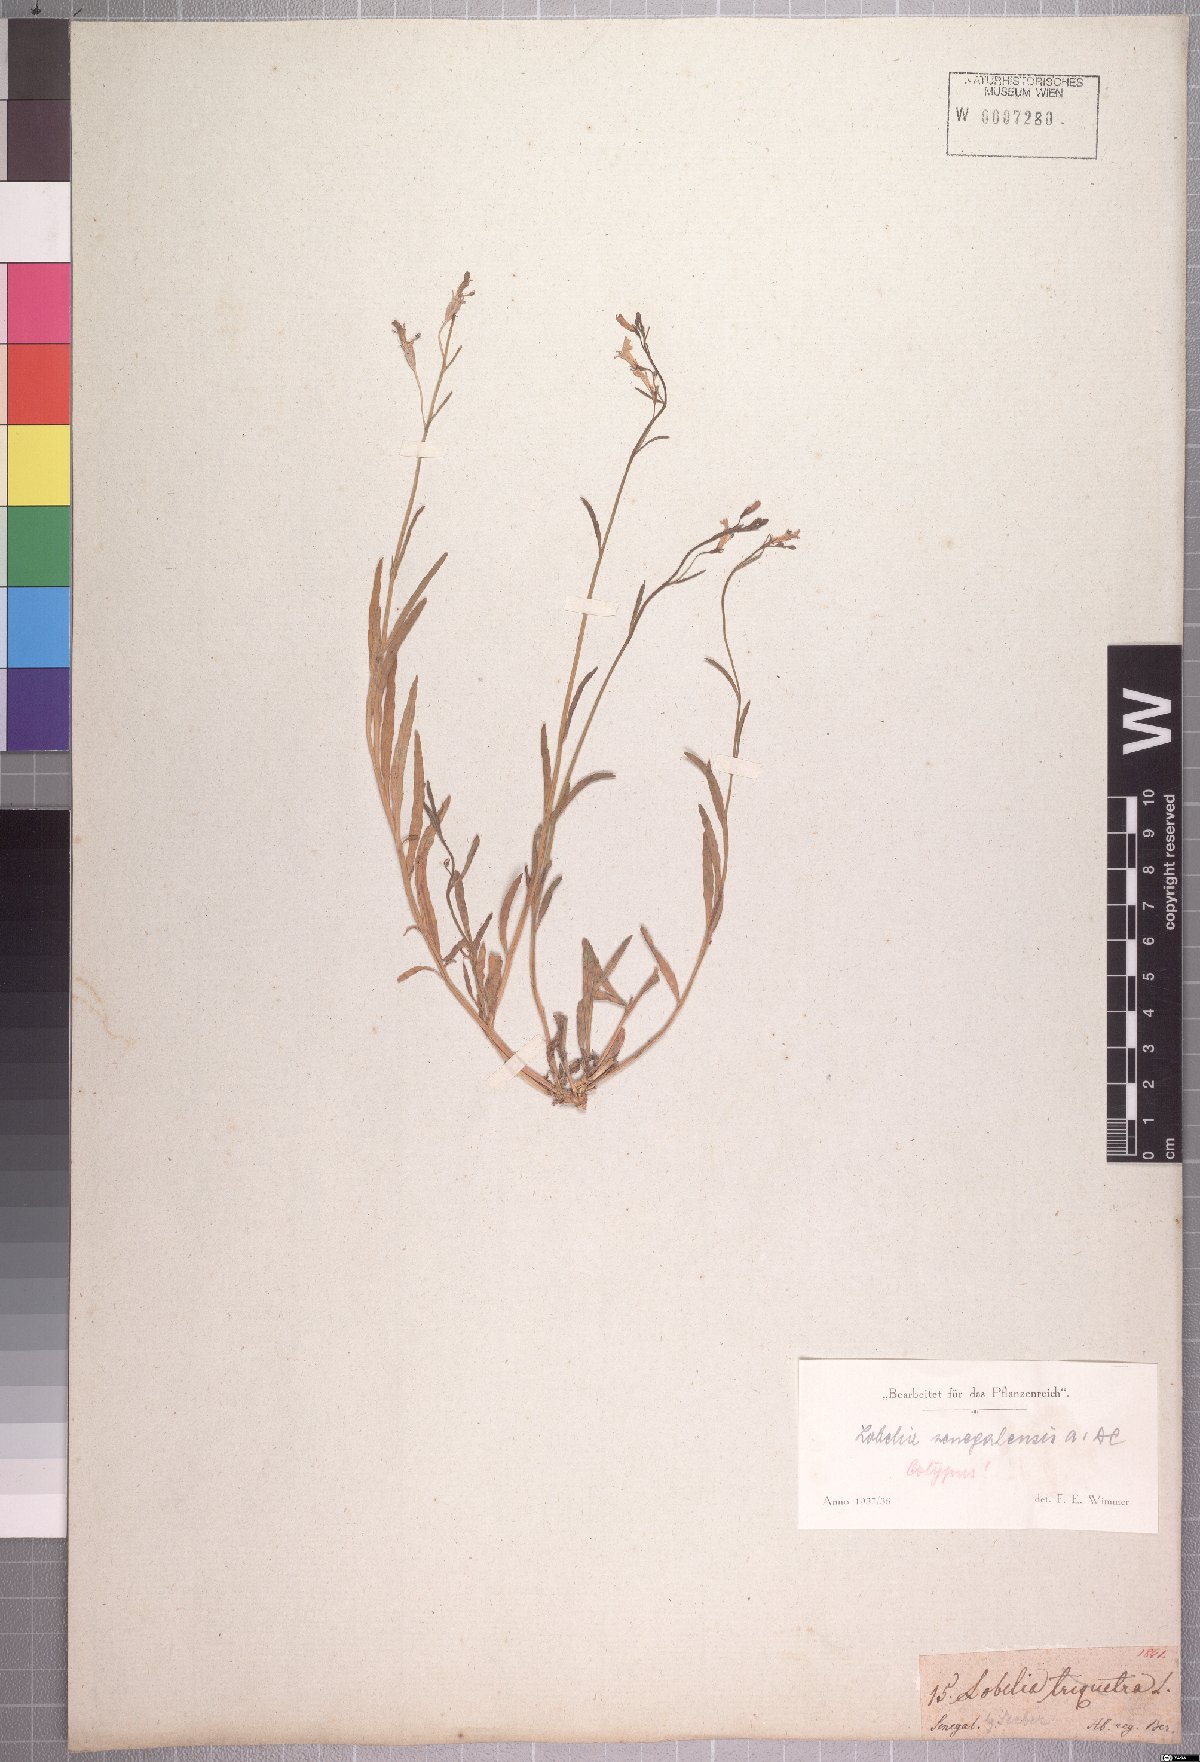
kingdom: Plantae
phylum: Tracheophyta
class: Magnoliopsida
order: Asterales
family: Campanulaceae
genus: Lobelia
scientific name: Lobelia erinus
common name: Edging lobelia
